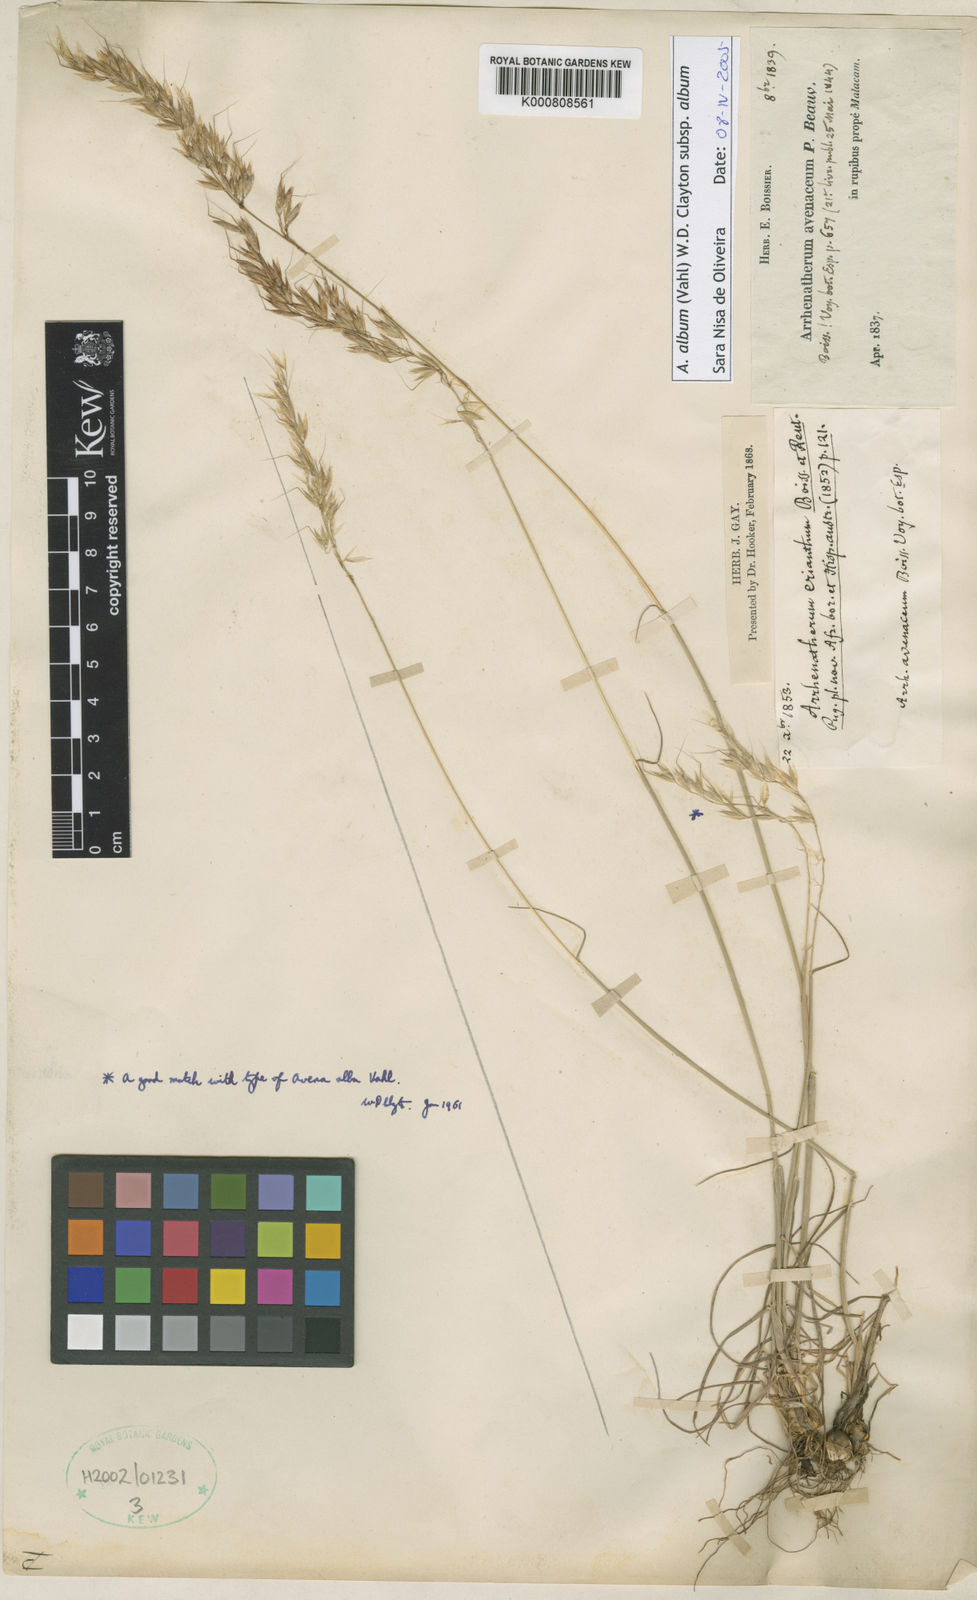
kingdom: Plantae
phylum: Tracheophyta
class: Liliopsida
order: Poales
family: Poaceae
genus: Arrhenatherum
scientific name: Arrhenatherum album
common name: Tall oat grass
